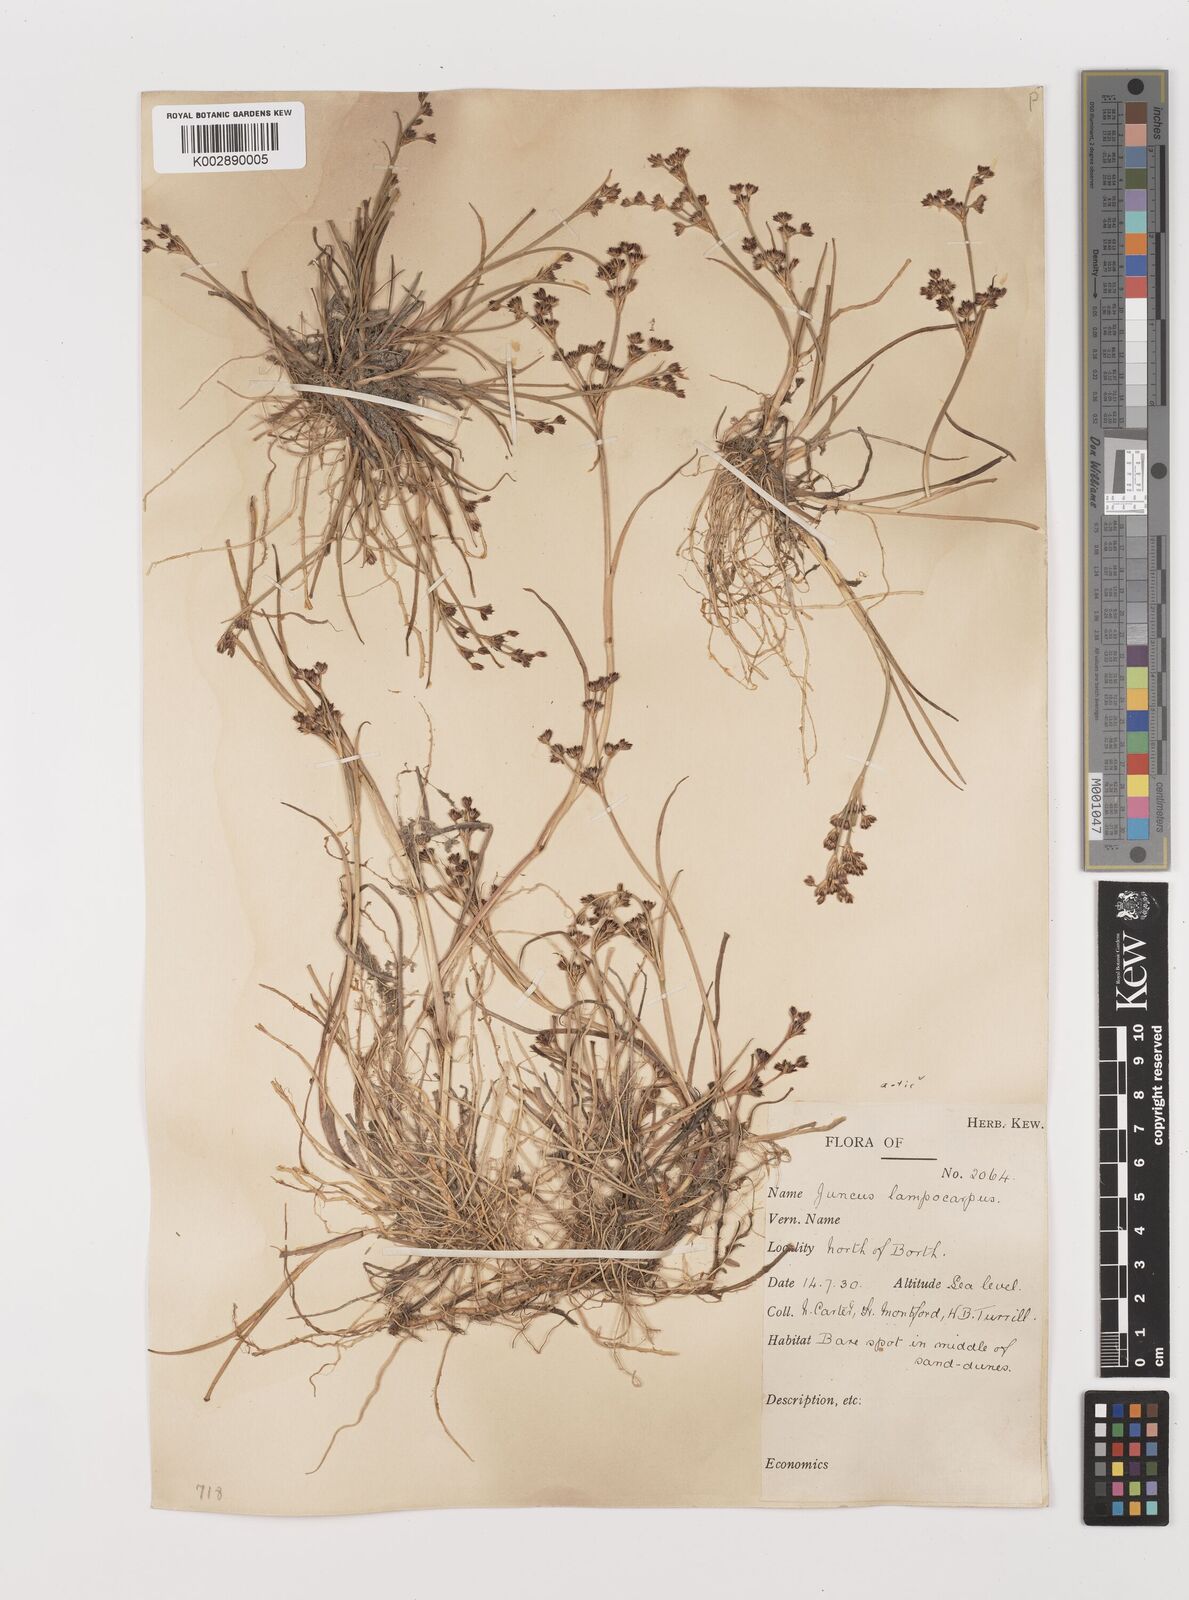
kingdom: Plantae
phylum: Tracheophyta
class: Liliopsida
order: Poales
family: Juncaceae
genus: Juncus
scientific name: Juncus articulatus
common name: Jointed rush
